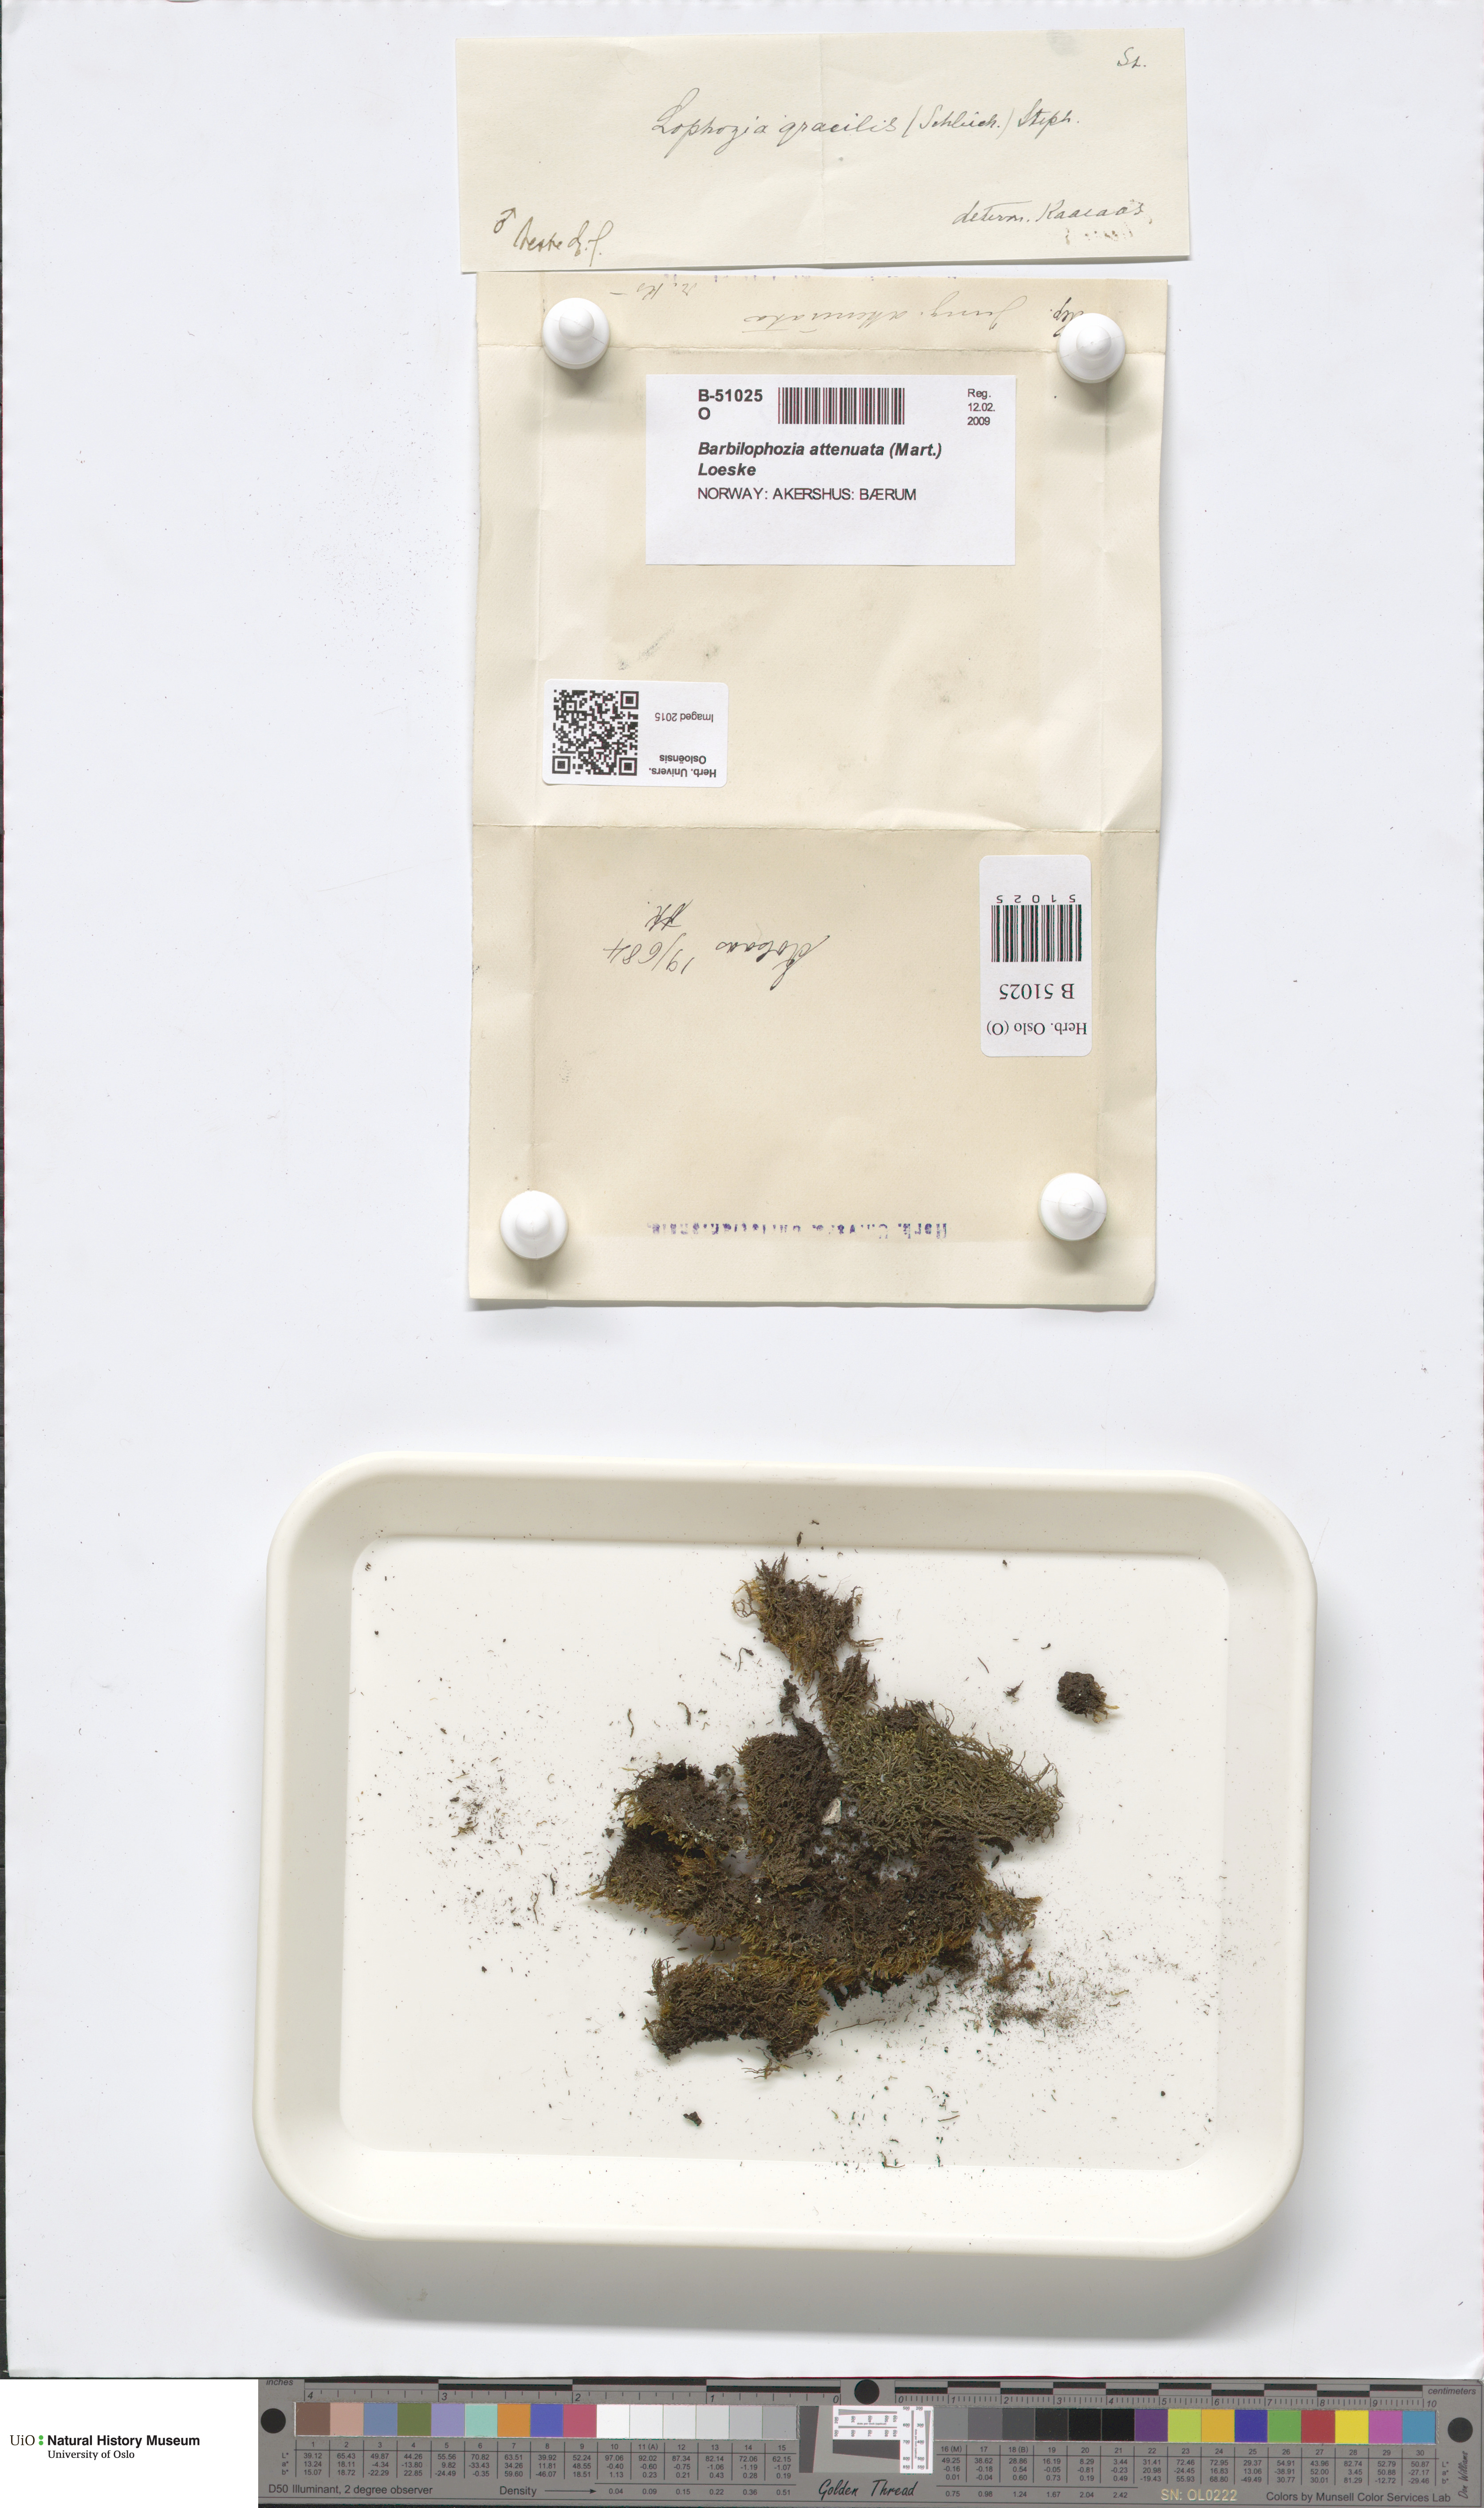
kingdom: Plantae
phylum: Marchantiophyta
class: Jungermanniopsida
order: Jungermanniales
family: Anastrophyllaceae
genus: Neoorthocaulis
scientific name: Neoorthocaulis attenuatus
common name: Trunk pawwort
